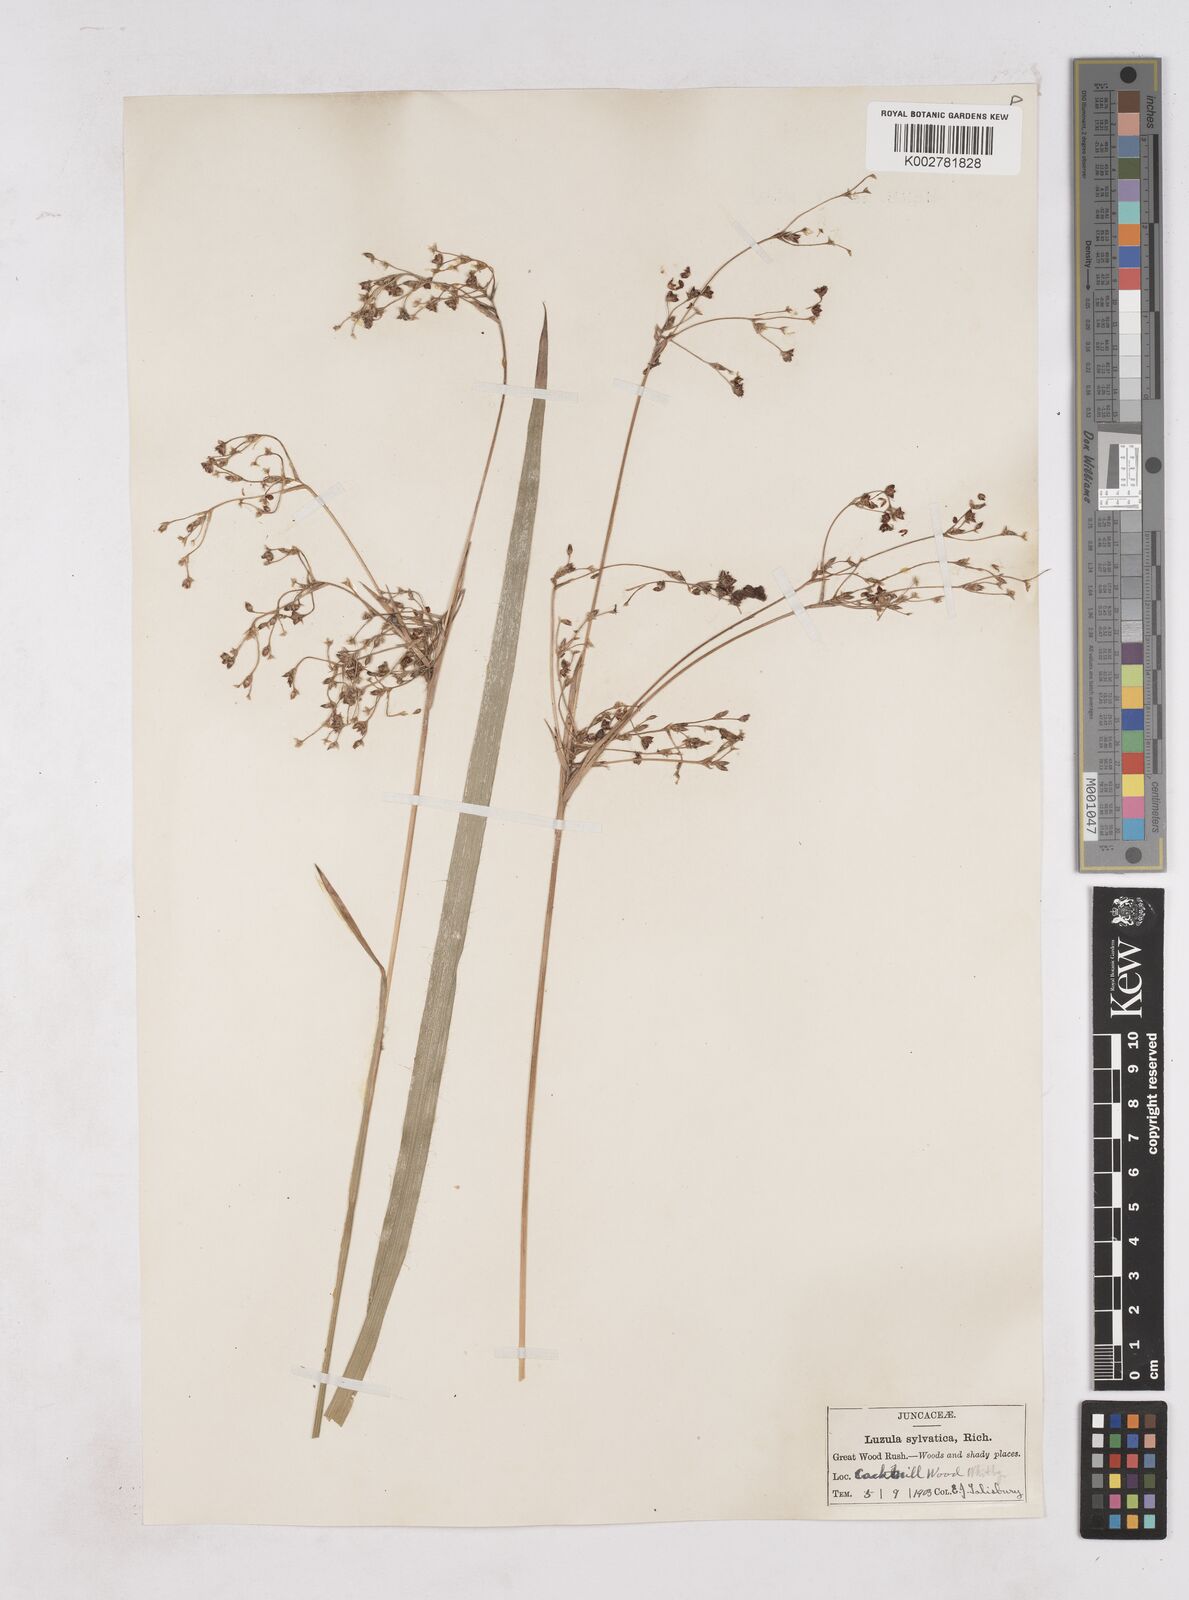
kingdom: Plantae
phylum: Tracheophyta
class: Liliopsida
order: Poales
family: Juncaceae
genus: Luzula
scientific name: Luzula sylvatica
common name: Great wood-rush
